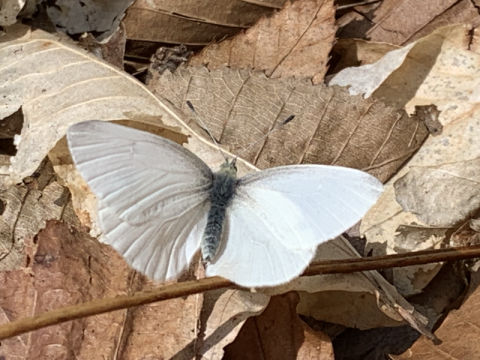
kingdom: Animalia
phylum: Arthropoda
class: Insecta
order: Lepidoptera
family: Pieridae
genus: Pieris
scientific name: Pieris virginiensis
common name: West Virginia White
